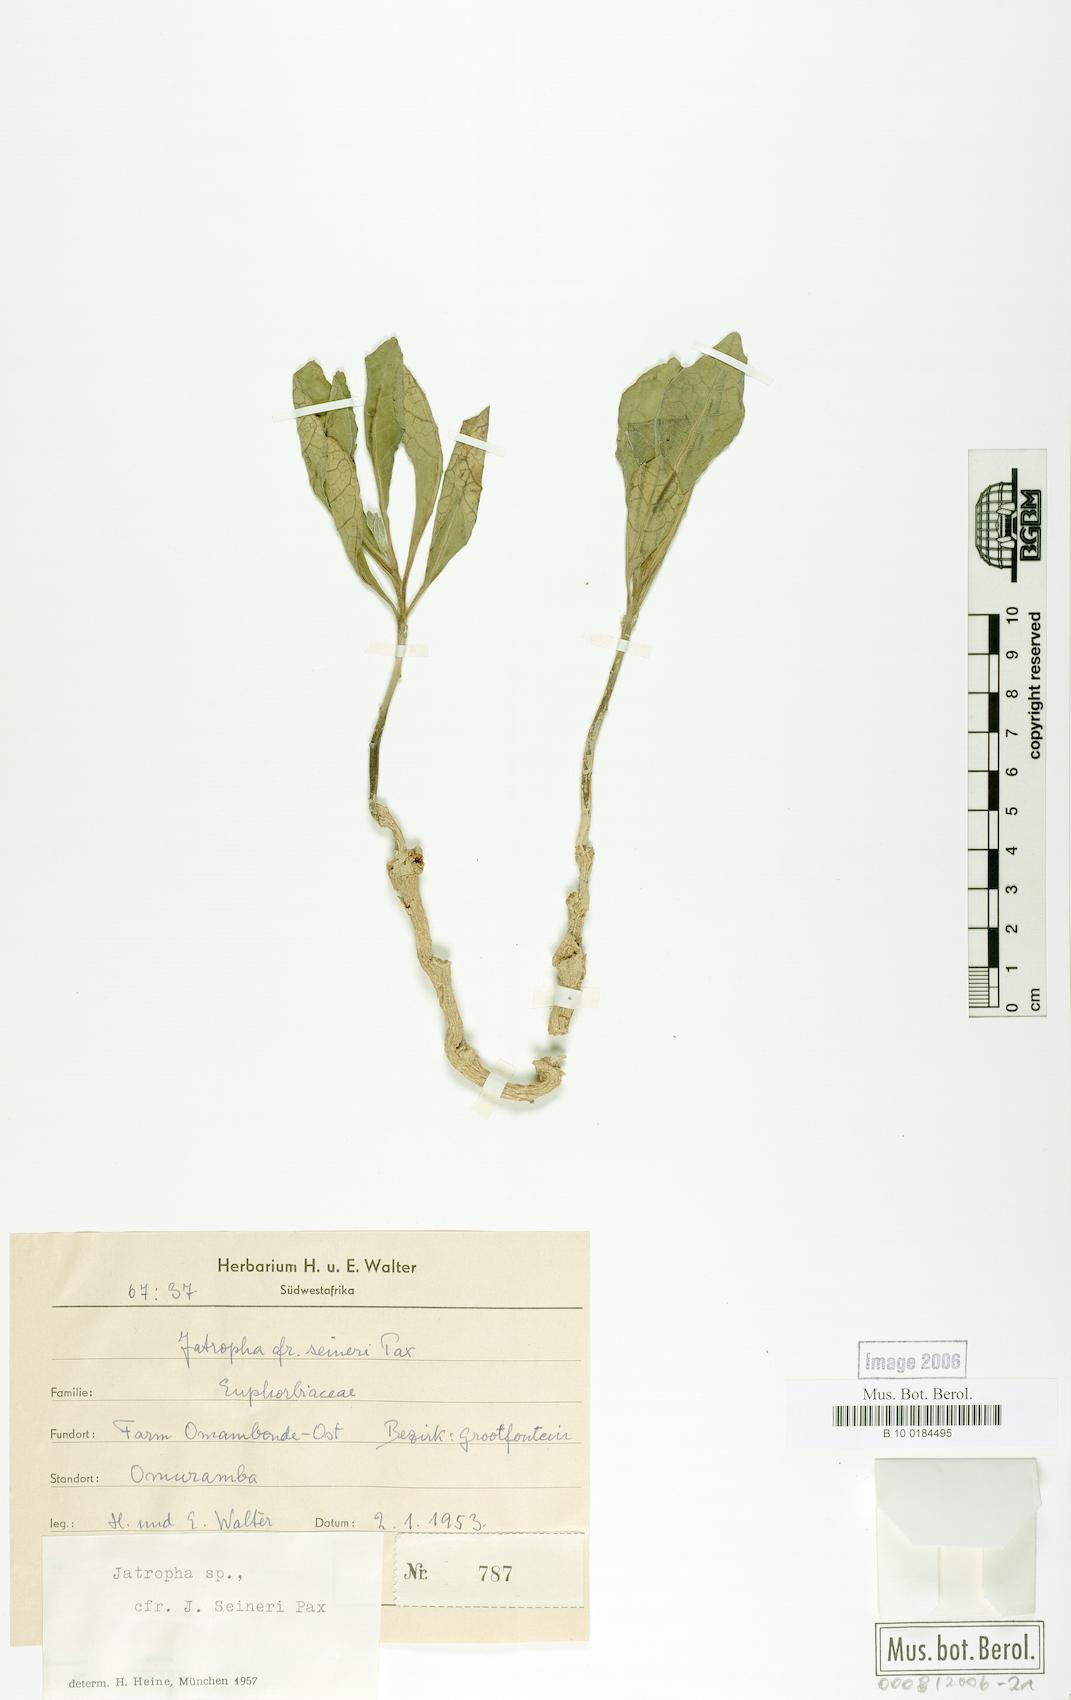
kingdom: Plantae
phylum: Tracheophyta
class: Magnoliopsida
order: Malpighiales
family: Euphorbiaceae
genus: Jatropha
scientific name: Jatropha seineri
